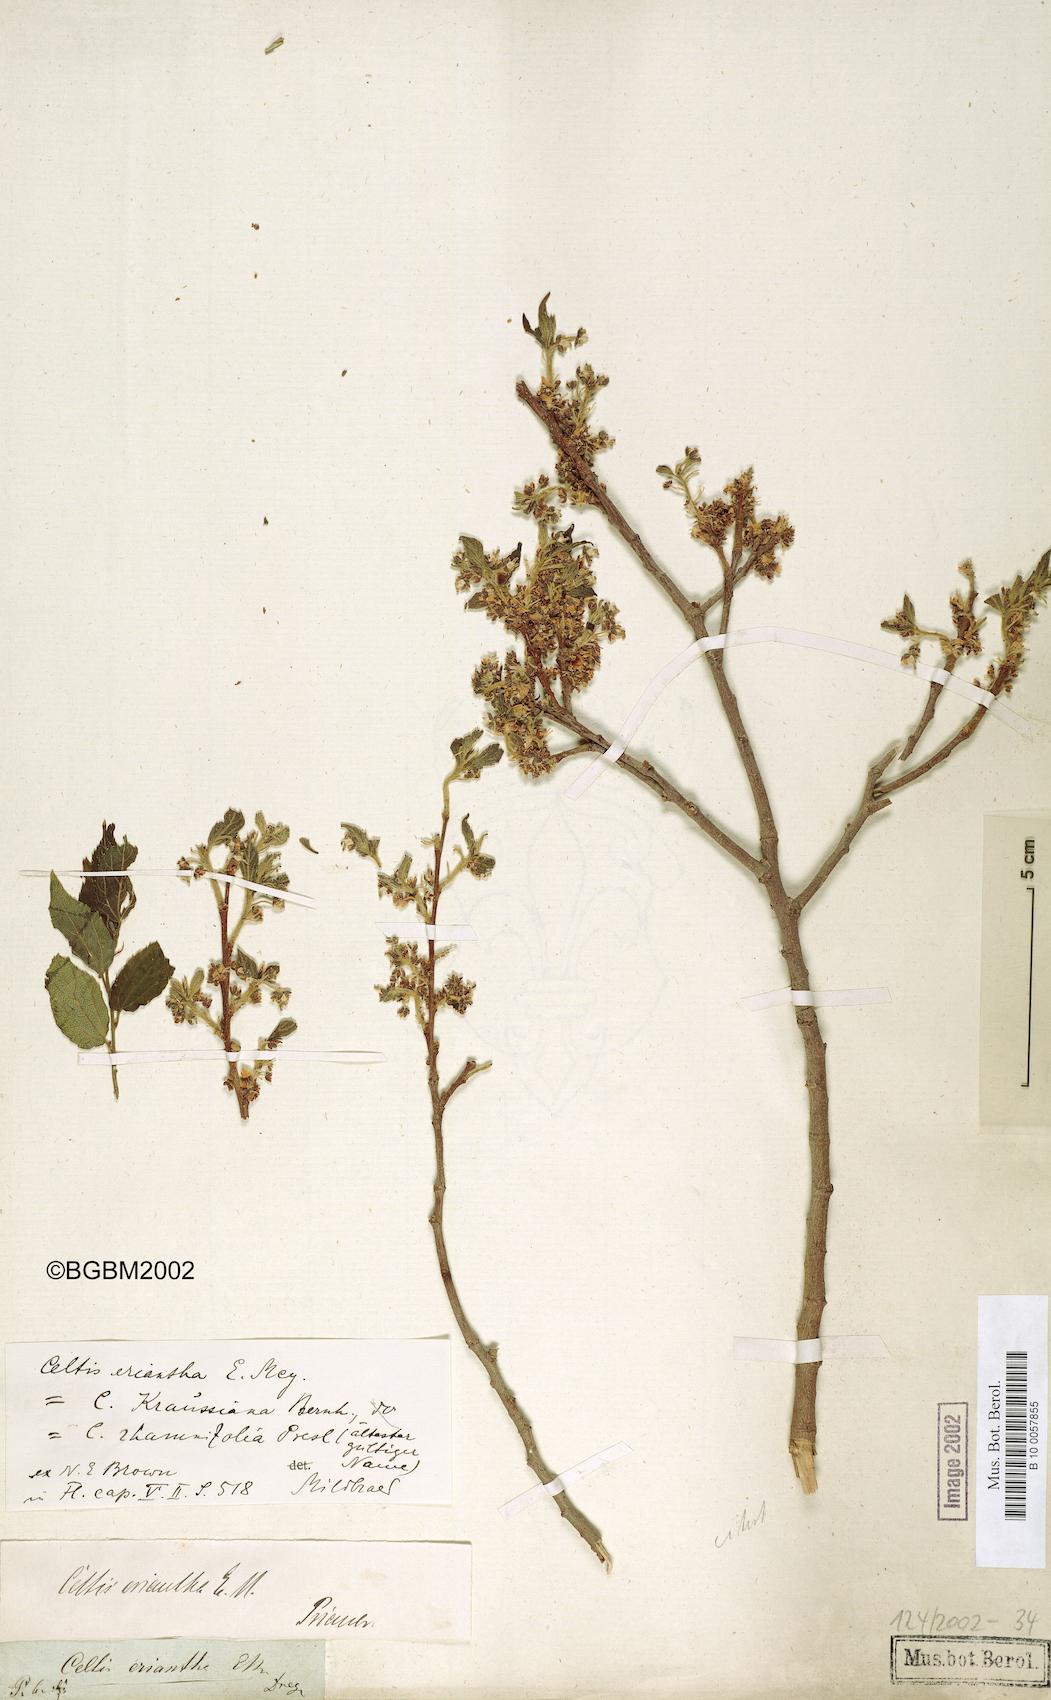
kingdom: Plantae
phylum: Tracheophyta
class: Magnoliopsida
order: Rosales
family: Cannabaceae
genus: Celtis
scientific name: Celtis africana
